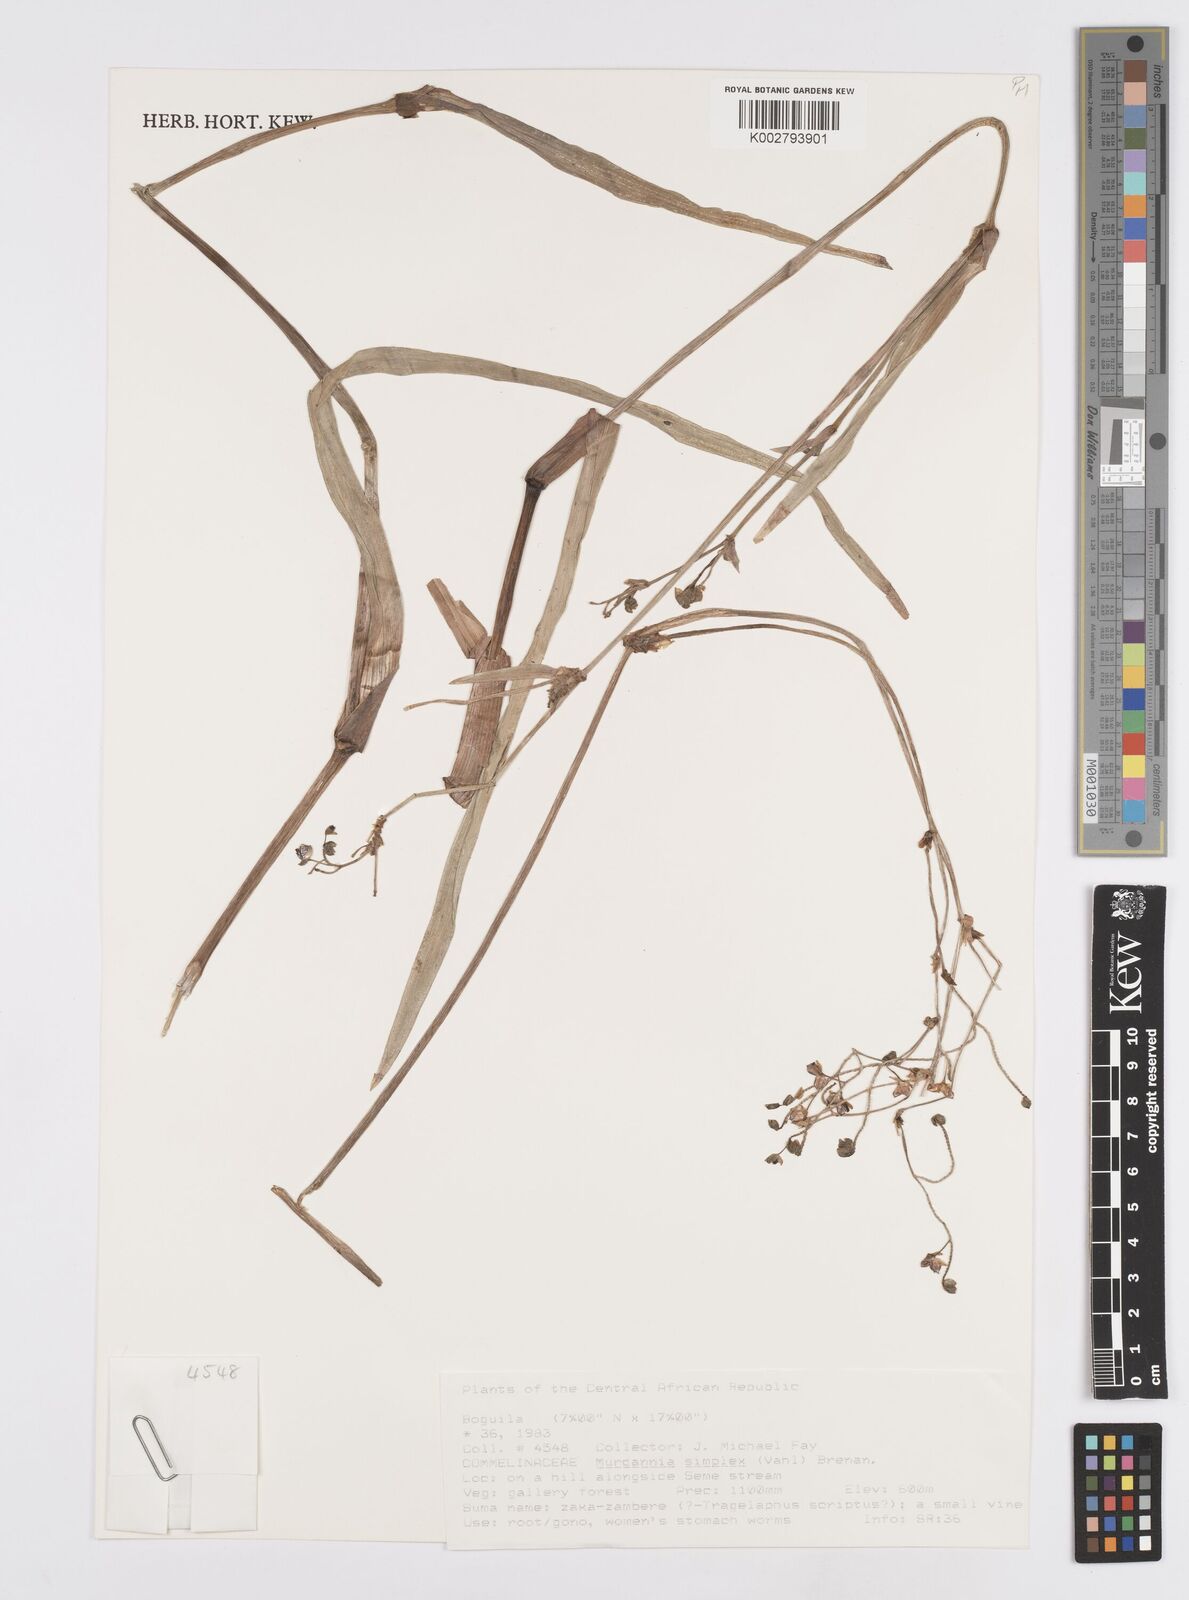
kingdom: Plantae
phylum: Tracheophyta
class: Liliopsida
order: Commelinales
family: Commelinaceae
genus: Murdannia
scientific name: Murdannia simplex
